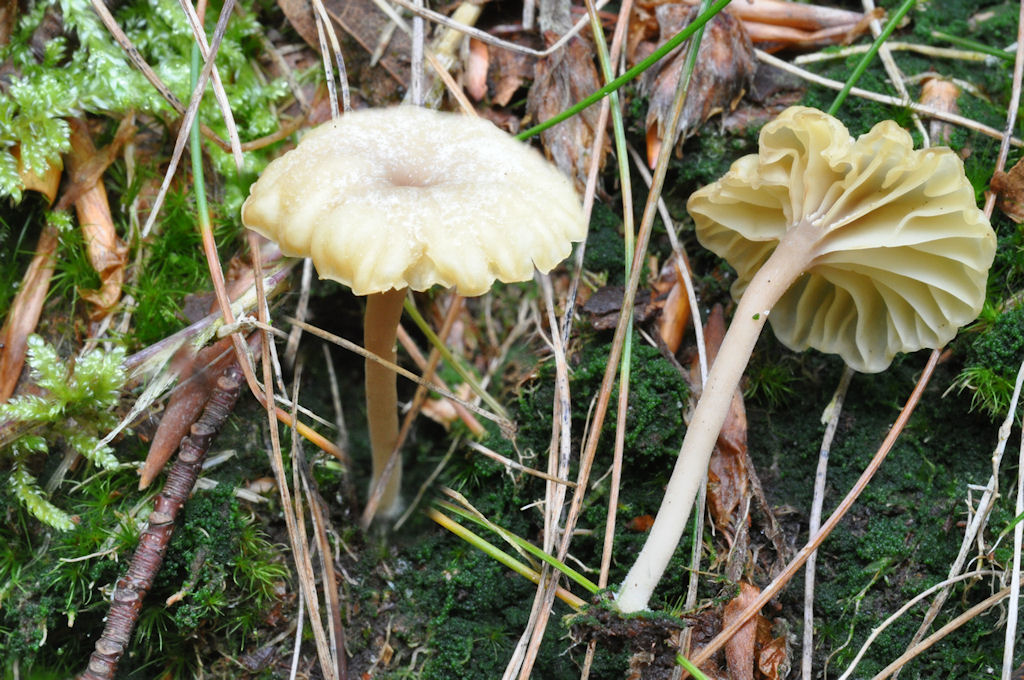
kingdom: Fungi
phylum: Basidiomycota
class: Agaricomycetes
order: Agaricales
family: Hygrophoraceae
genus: Lichenomphalia
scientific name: Lichenomphalia umbellifera
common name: tørve-lavhat
